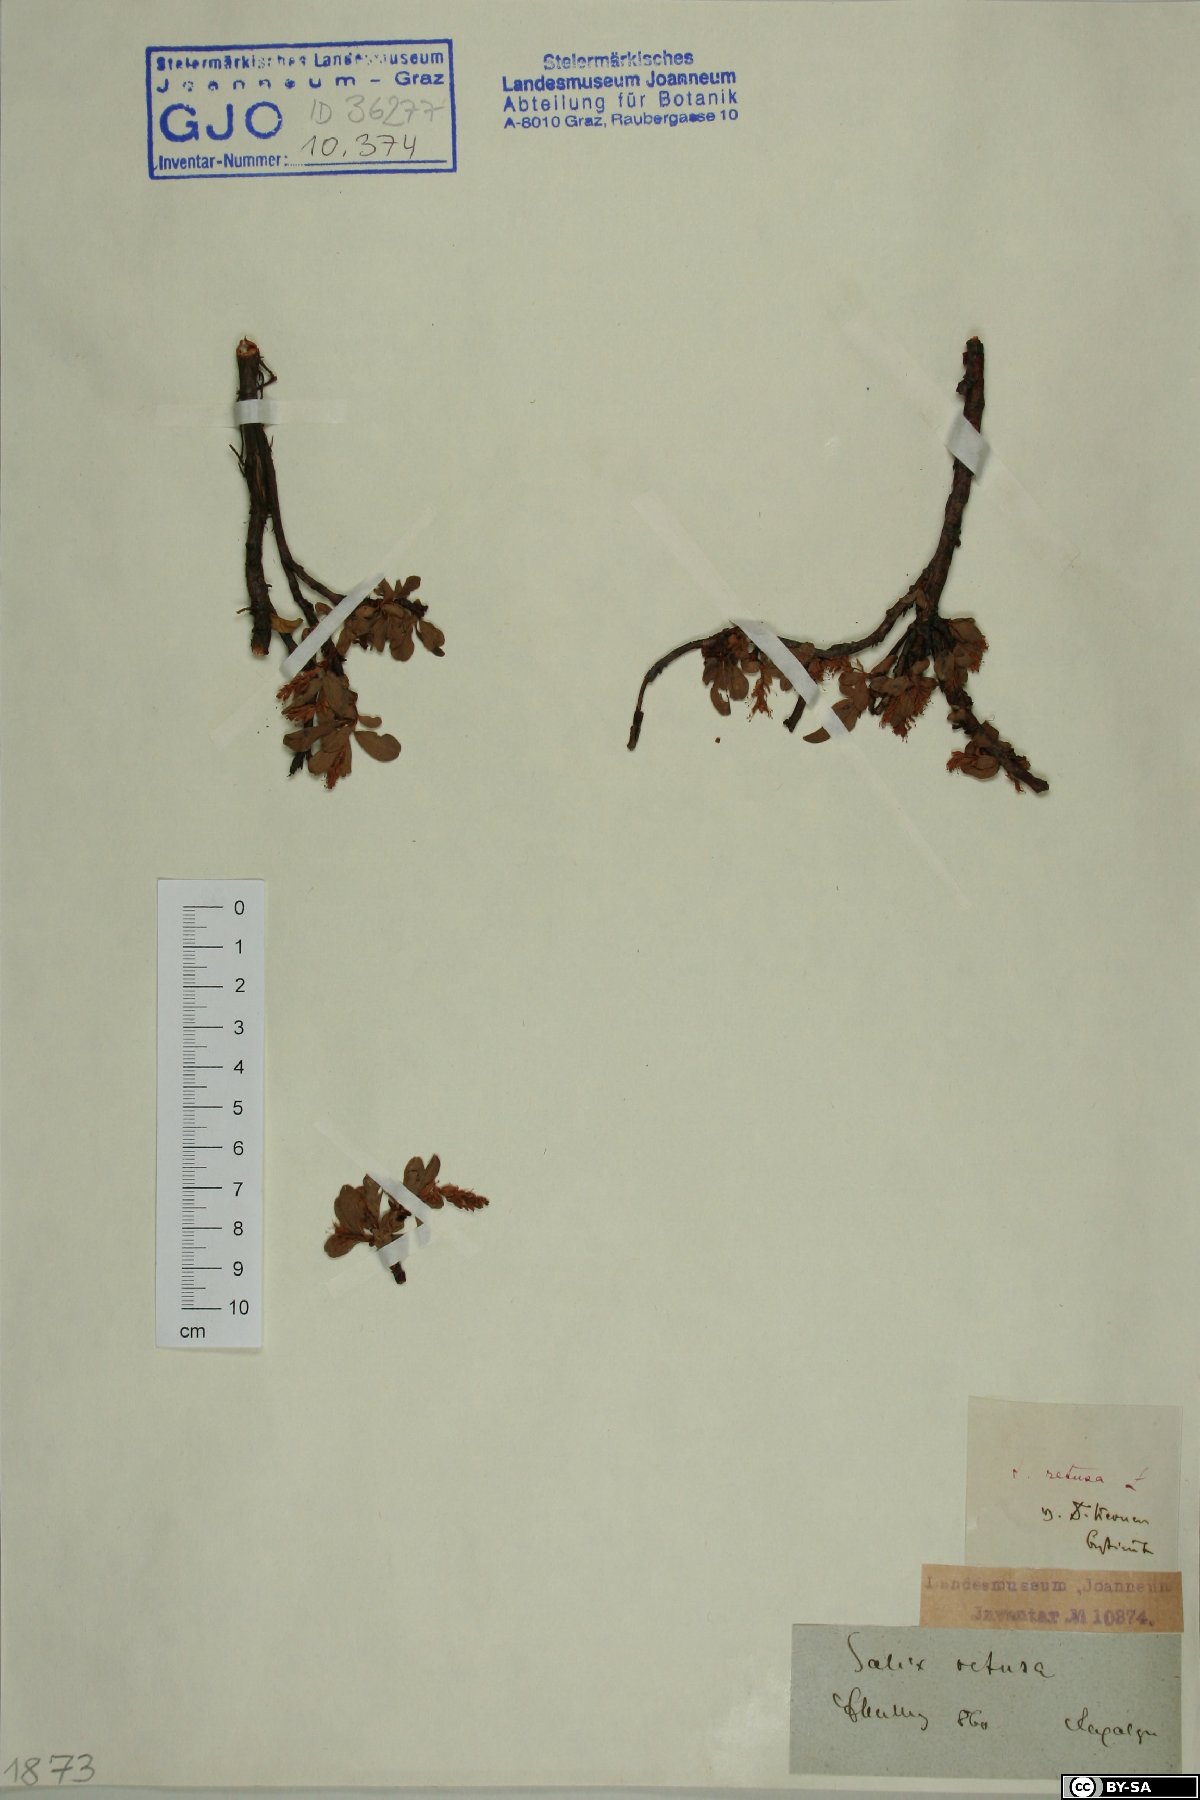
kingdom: Plantae
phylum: Tracheophyta
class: Magnoliopsida
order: Malpighiales
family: Salicaceae
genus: Salix
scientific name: Salix retusa
